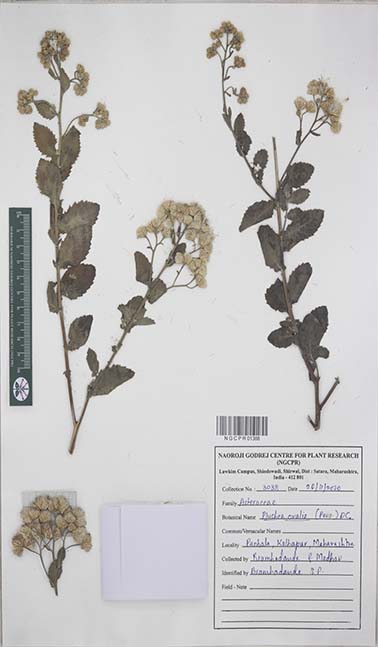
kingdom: Plantae
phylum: Tracheophyta
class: Magnoliopsida
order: Asterales
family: Asteraceae
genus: Pluchea
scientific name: Pluchea ovalis
